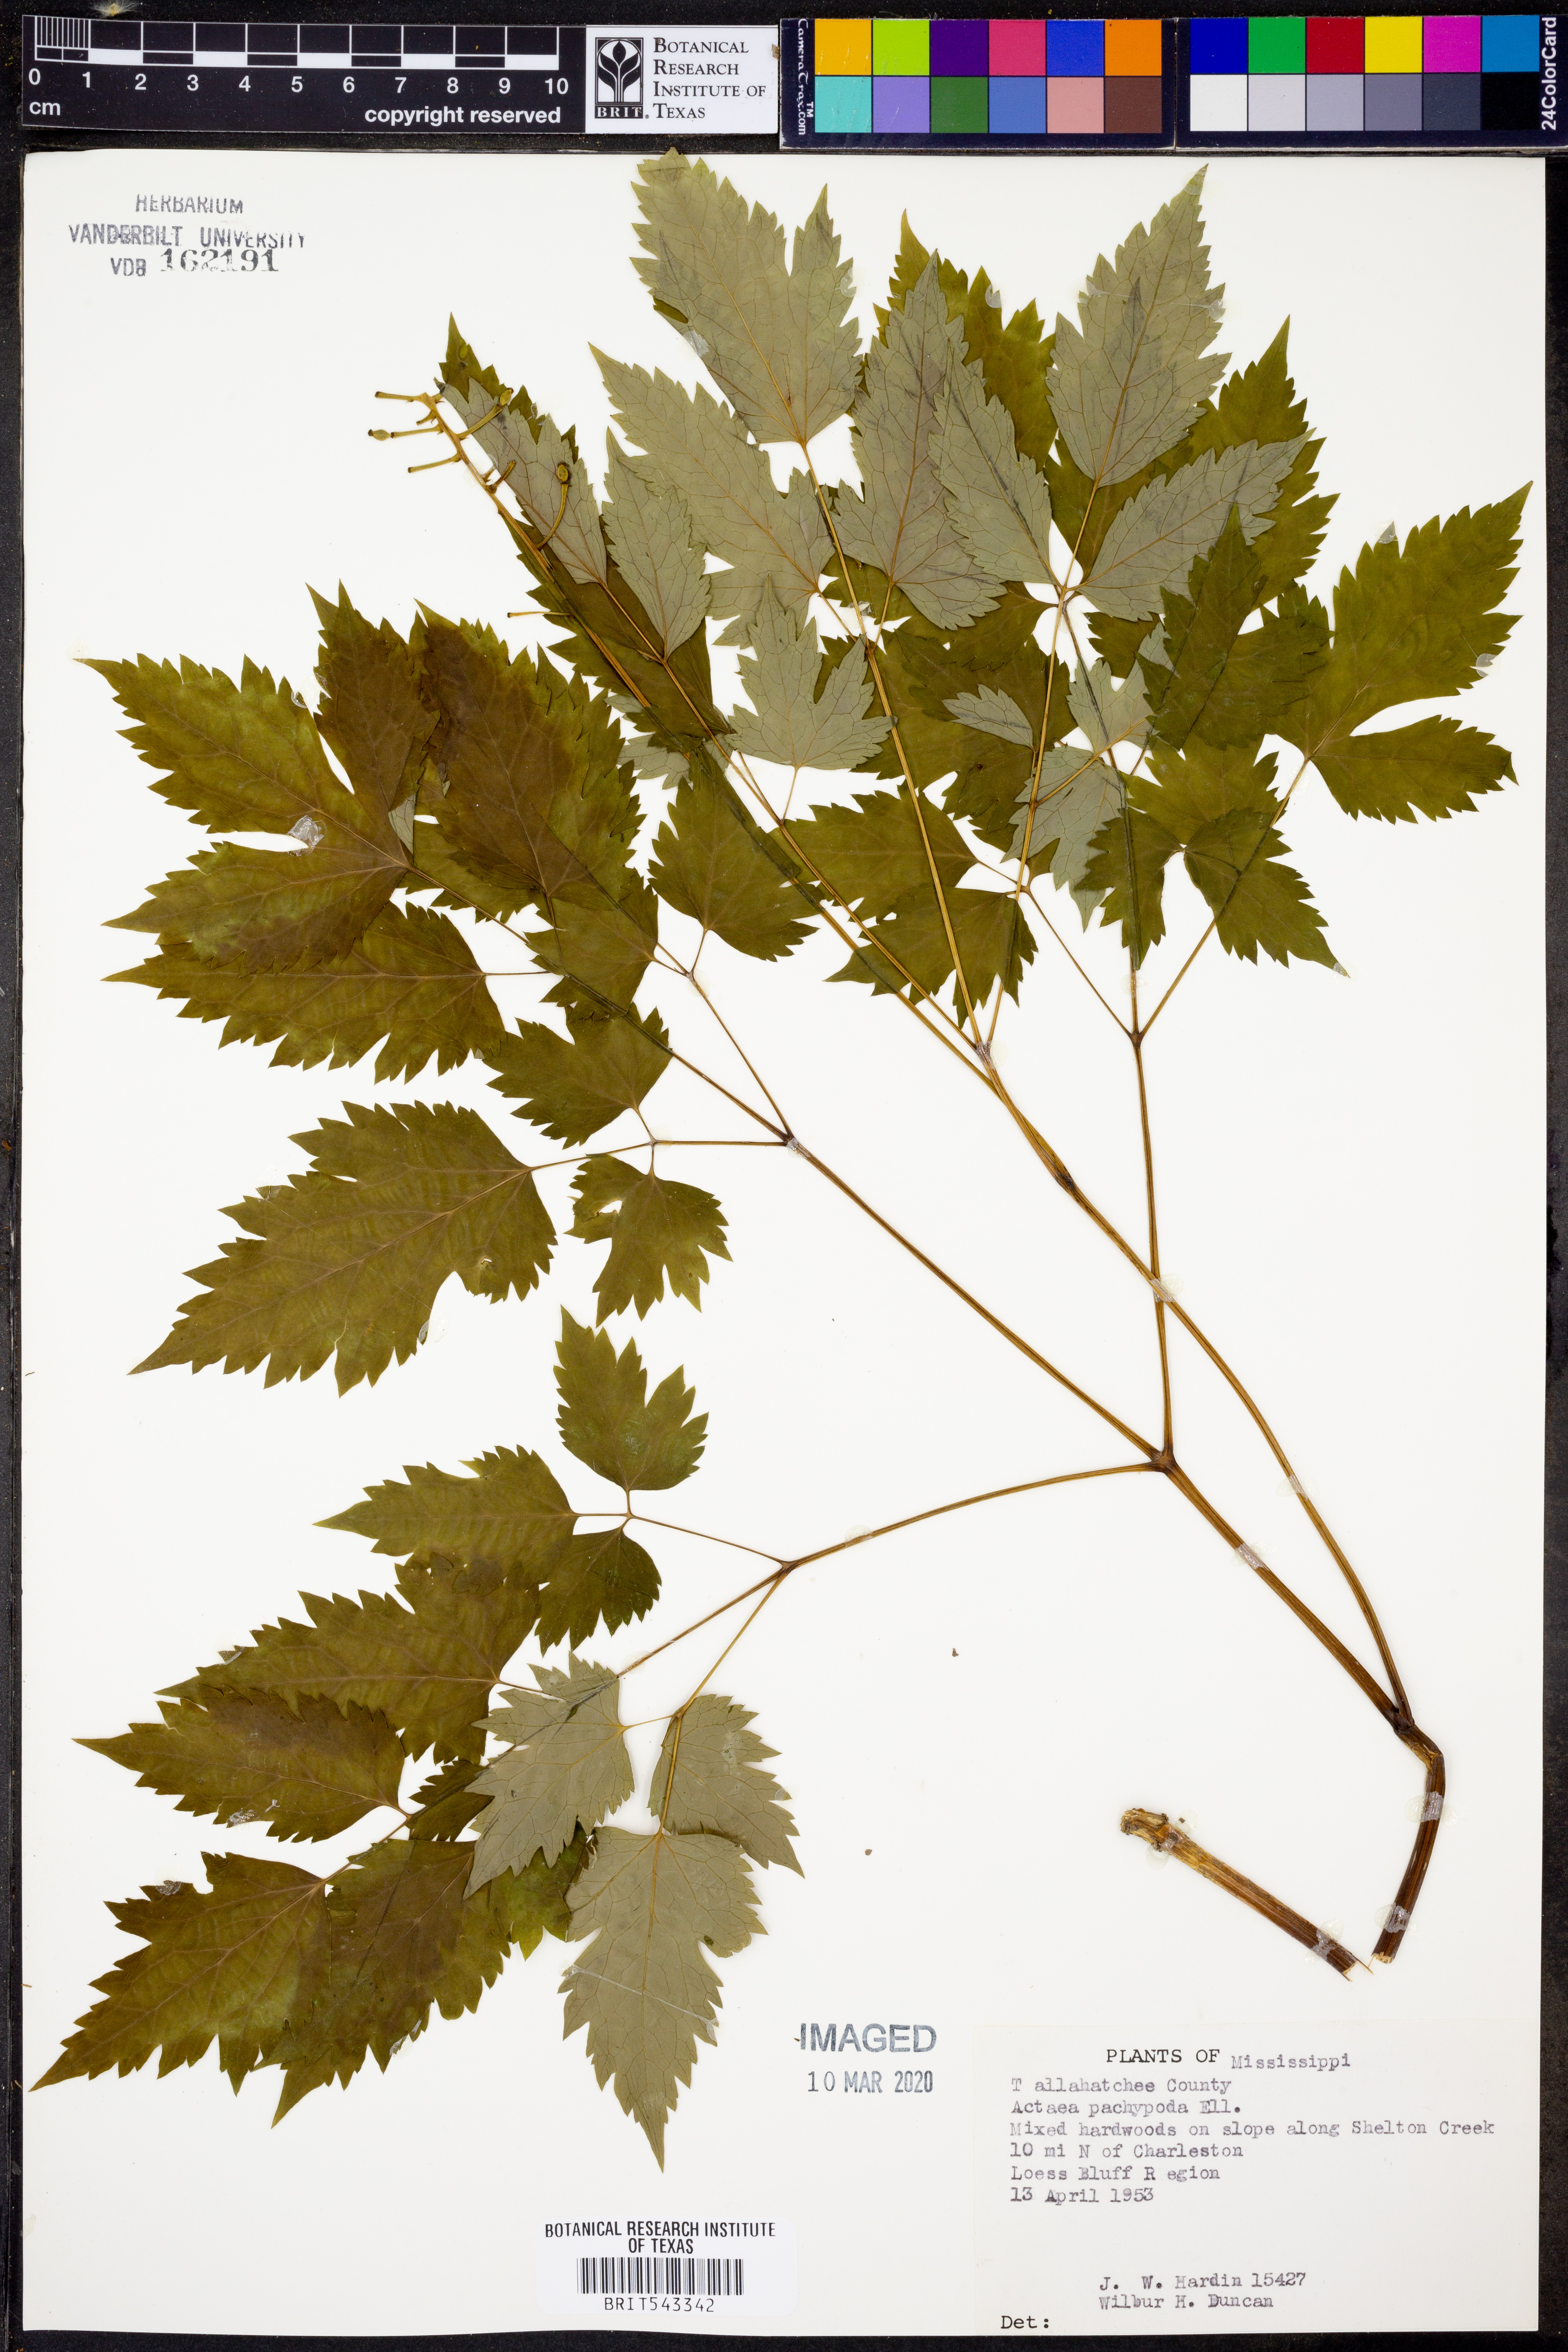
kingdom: Plantae
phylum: Tracheophyta
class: Magnoliopsida
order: Ranunculales
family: Ranunculaceae
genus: Actaea
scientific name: Actaea pachypoda
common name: Doll's-eyes
